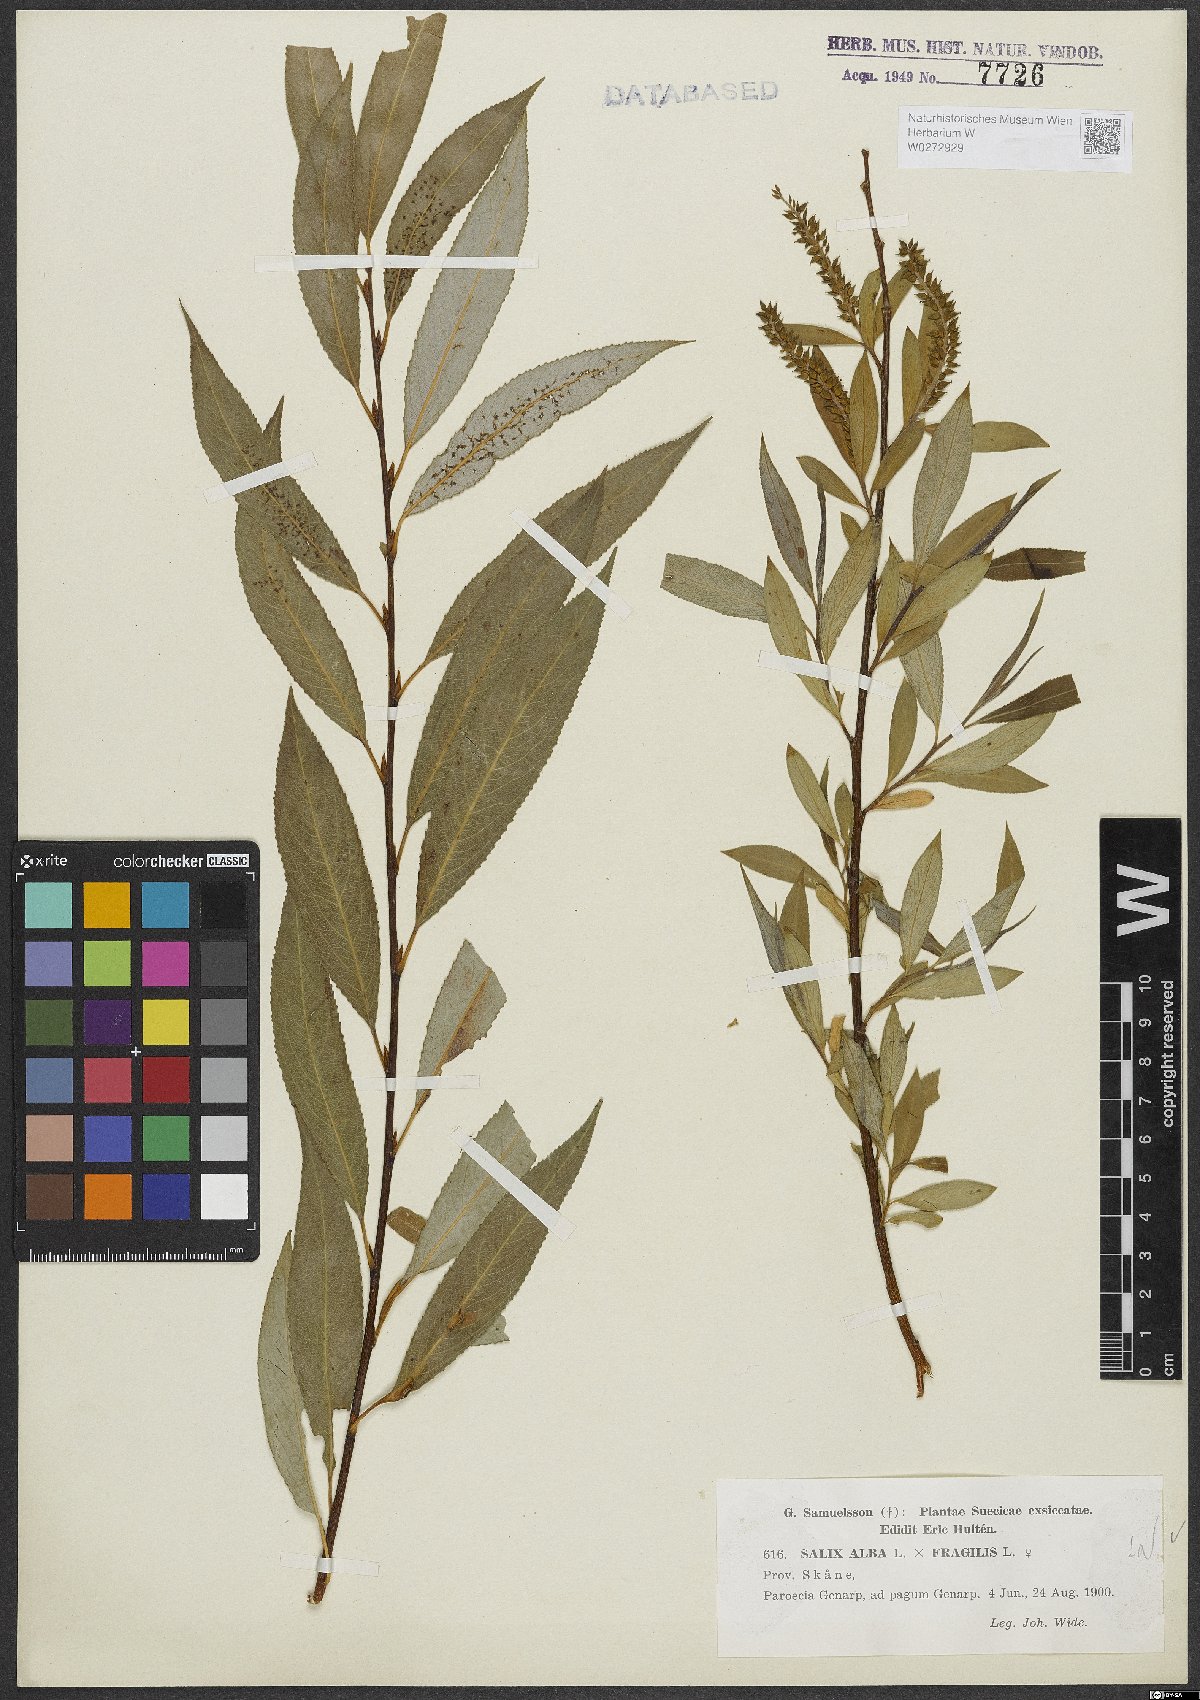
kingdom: Plantae
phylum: Tracheophyta
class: Magnoliopsida
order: Malpighiales
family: Salicaceae
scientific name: Salicaceae
